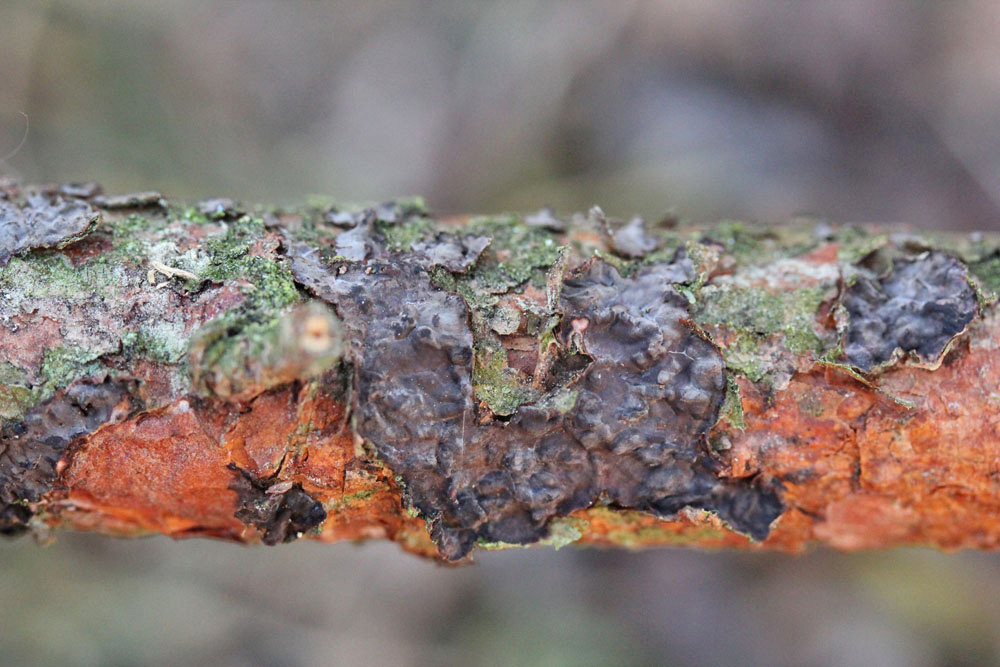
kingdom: Fungi
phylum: Basidiomycota
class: Agaricomycetes
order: Russulales
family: Peniophoraceae
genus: Peniophora
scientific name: Peniophora pini
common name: fyrre-voksskind
